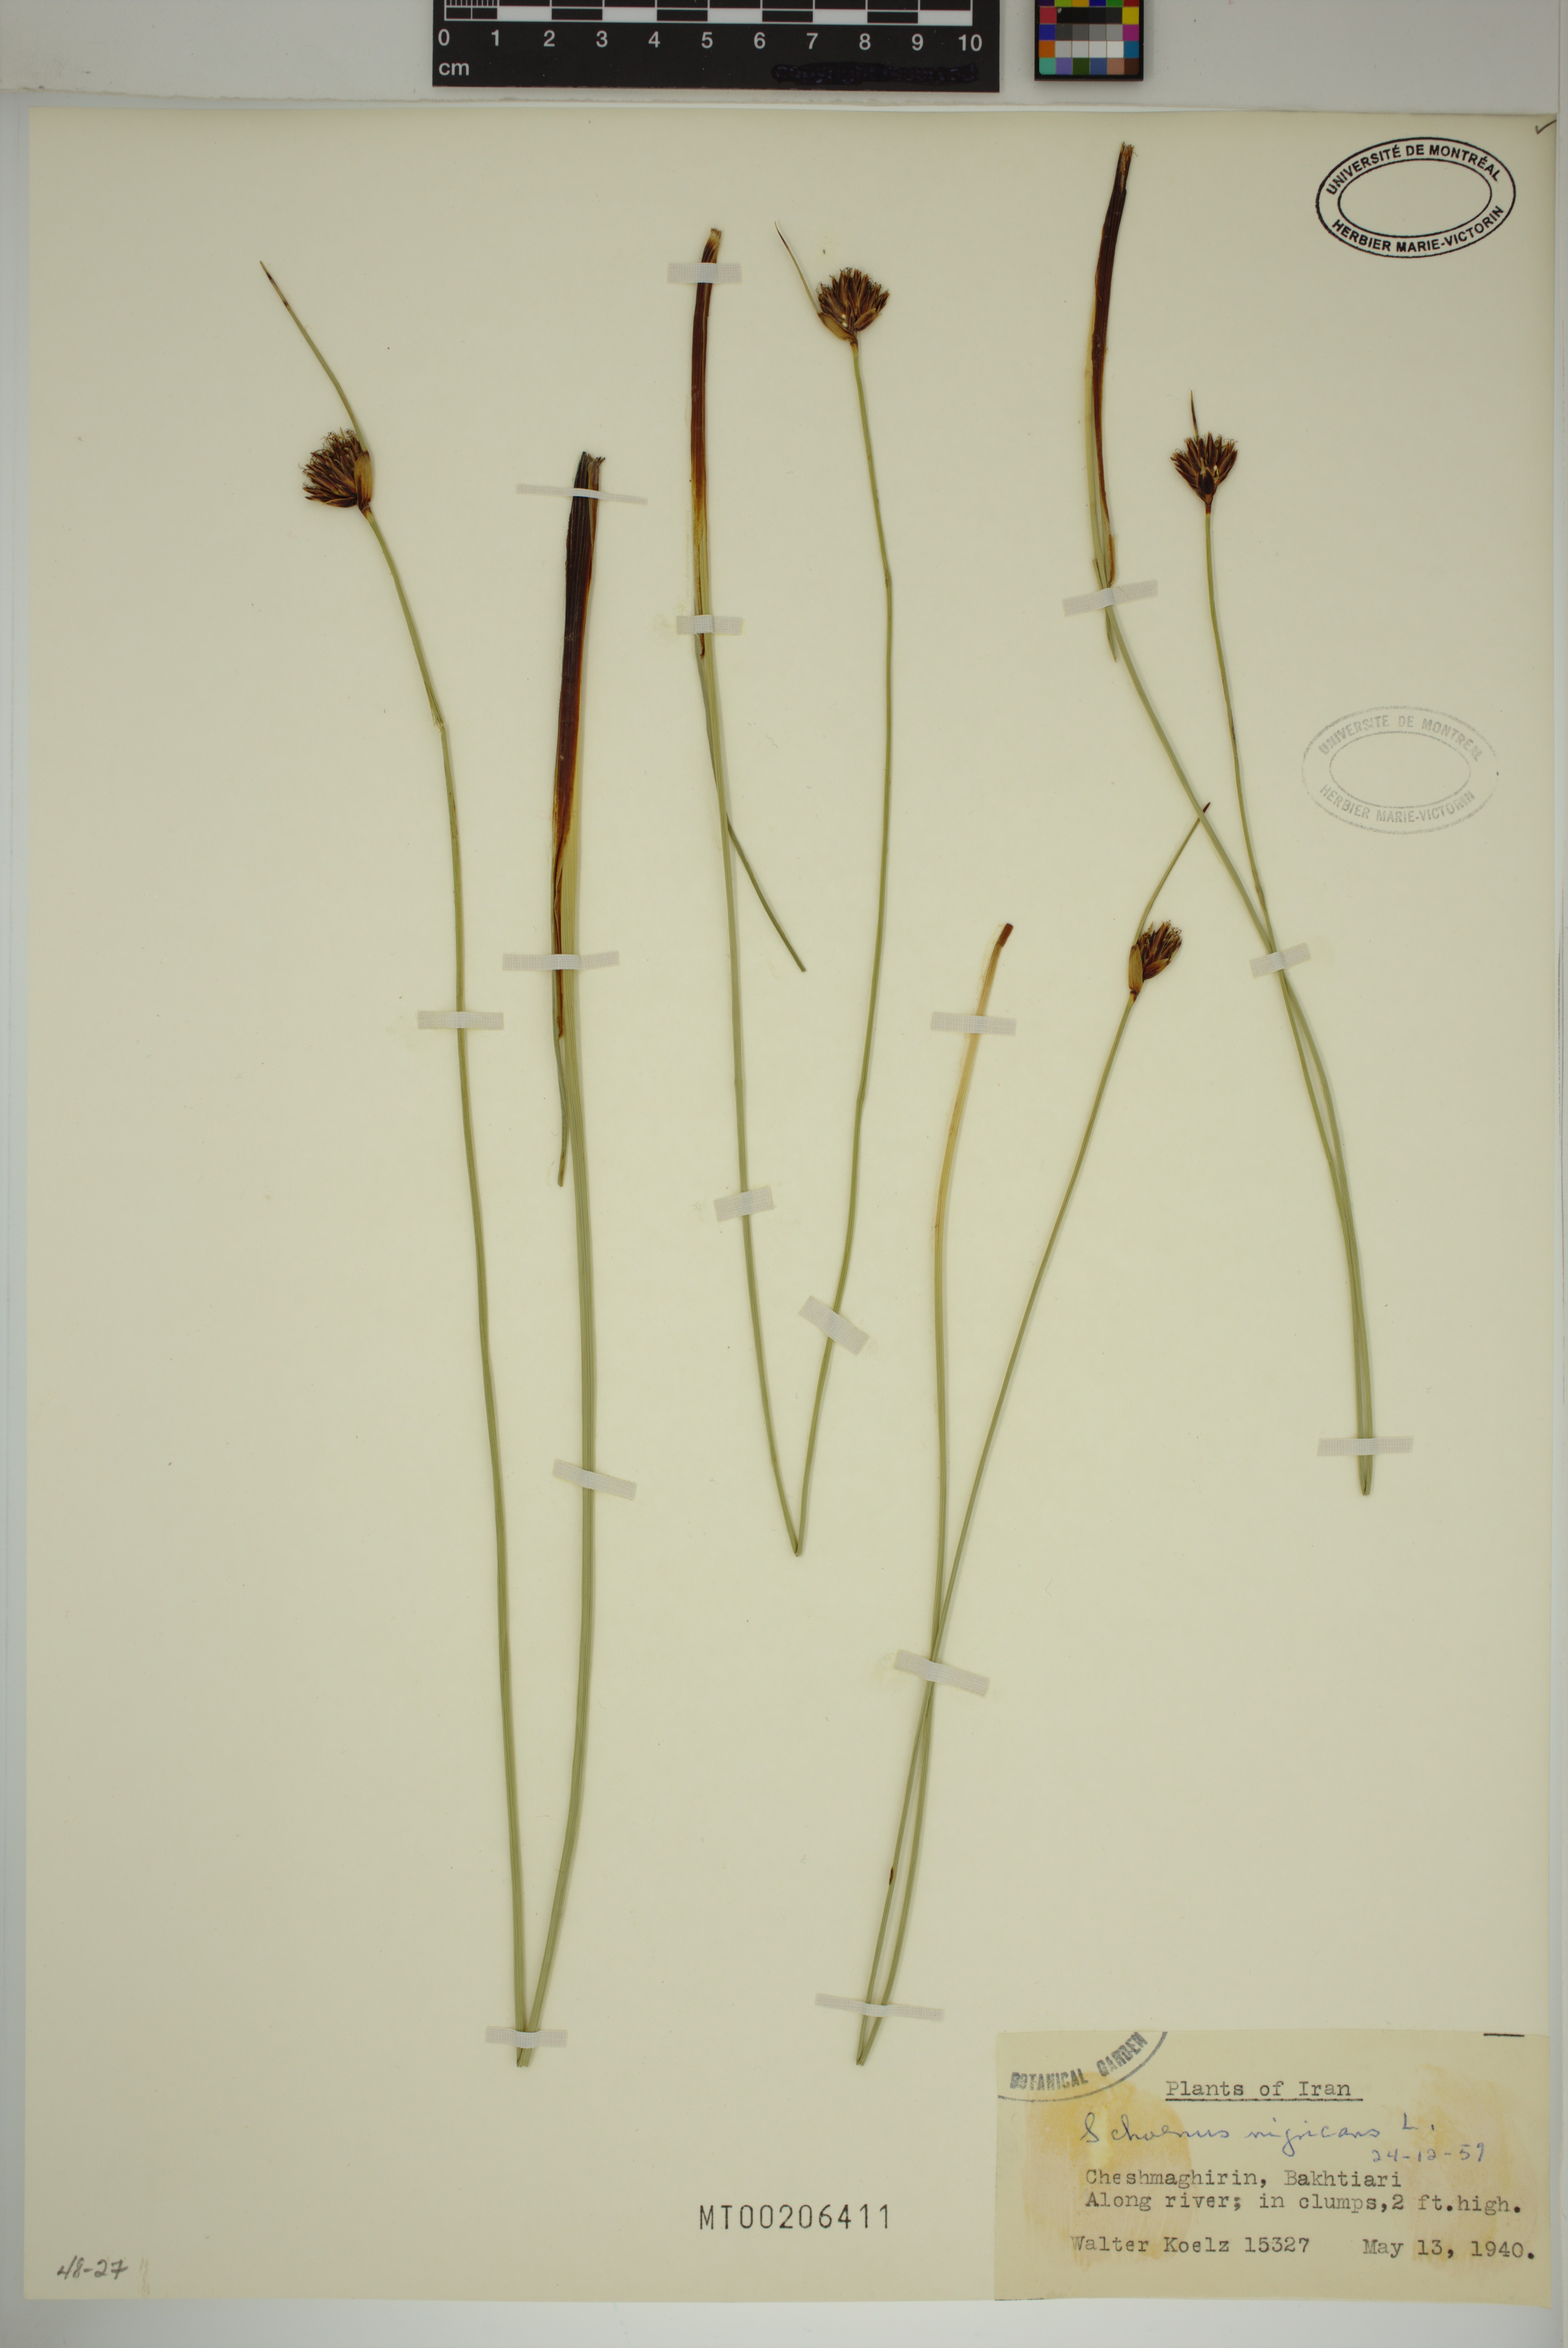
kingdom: Plantae
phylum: Tracheophyta
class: Liliopsida
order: Poales
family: Cyperaceae
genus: Schoenus
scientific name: Schoenus nigricans
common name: Black bog-rush
